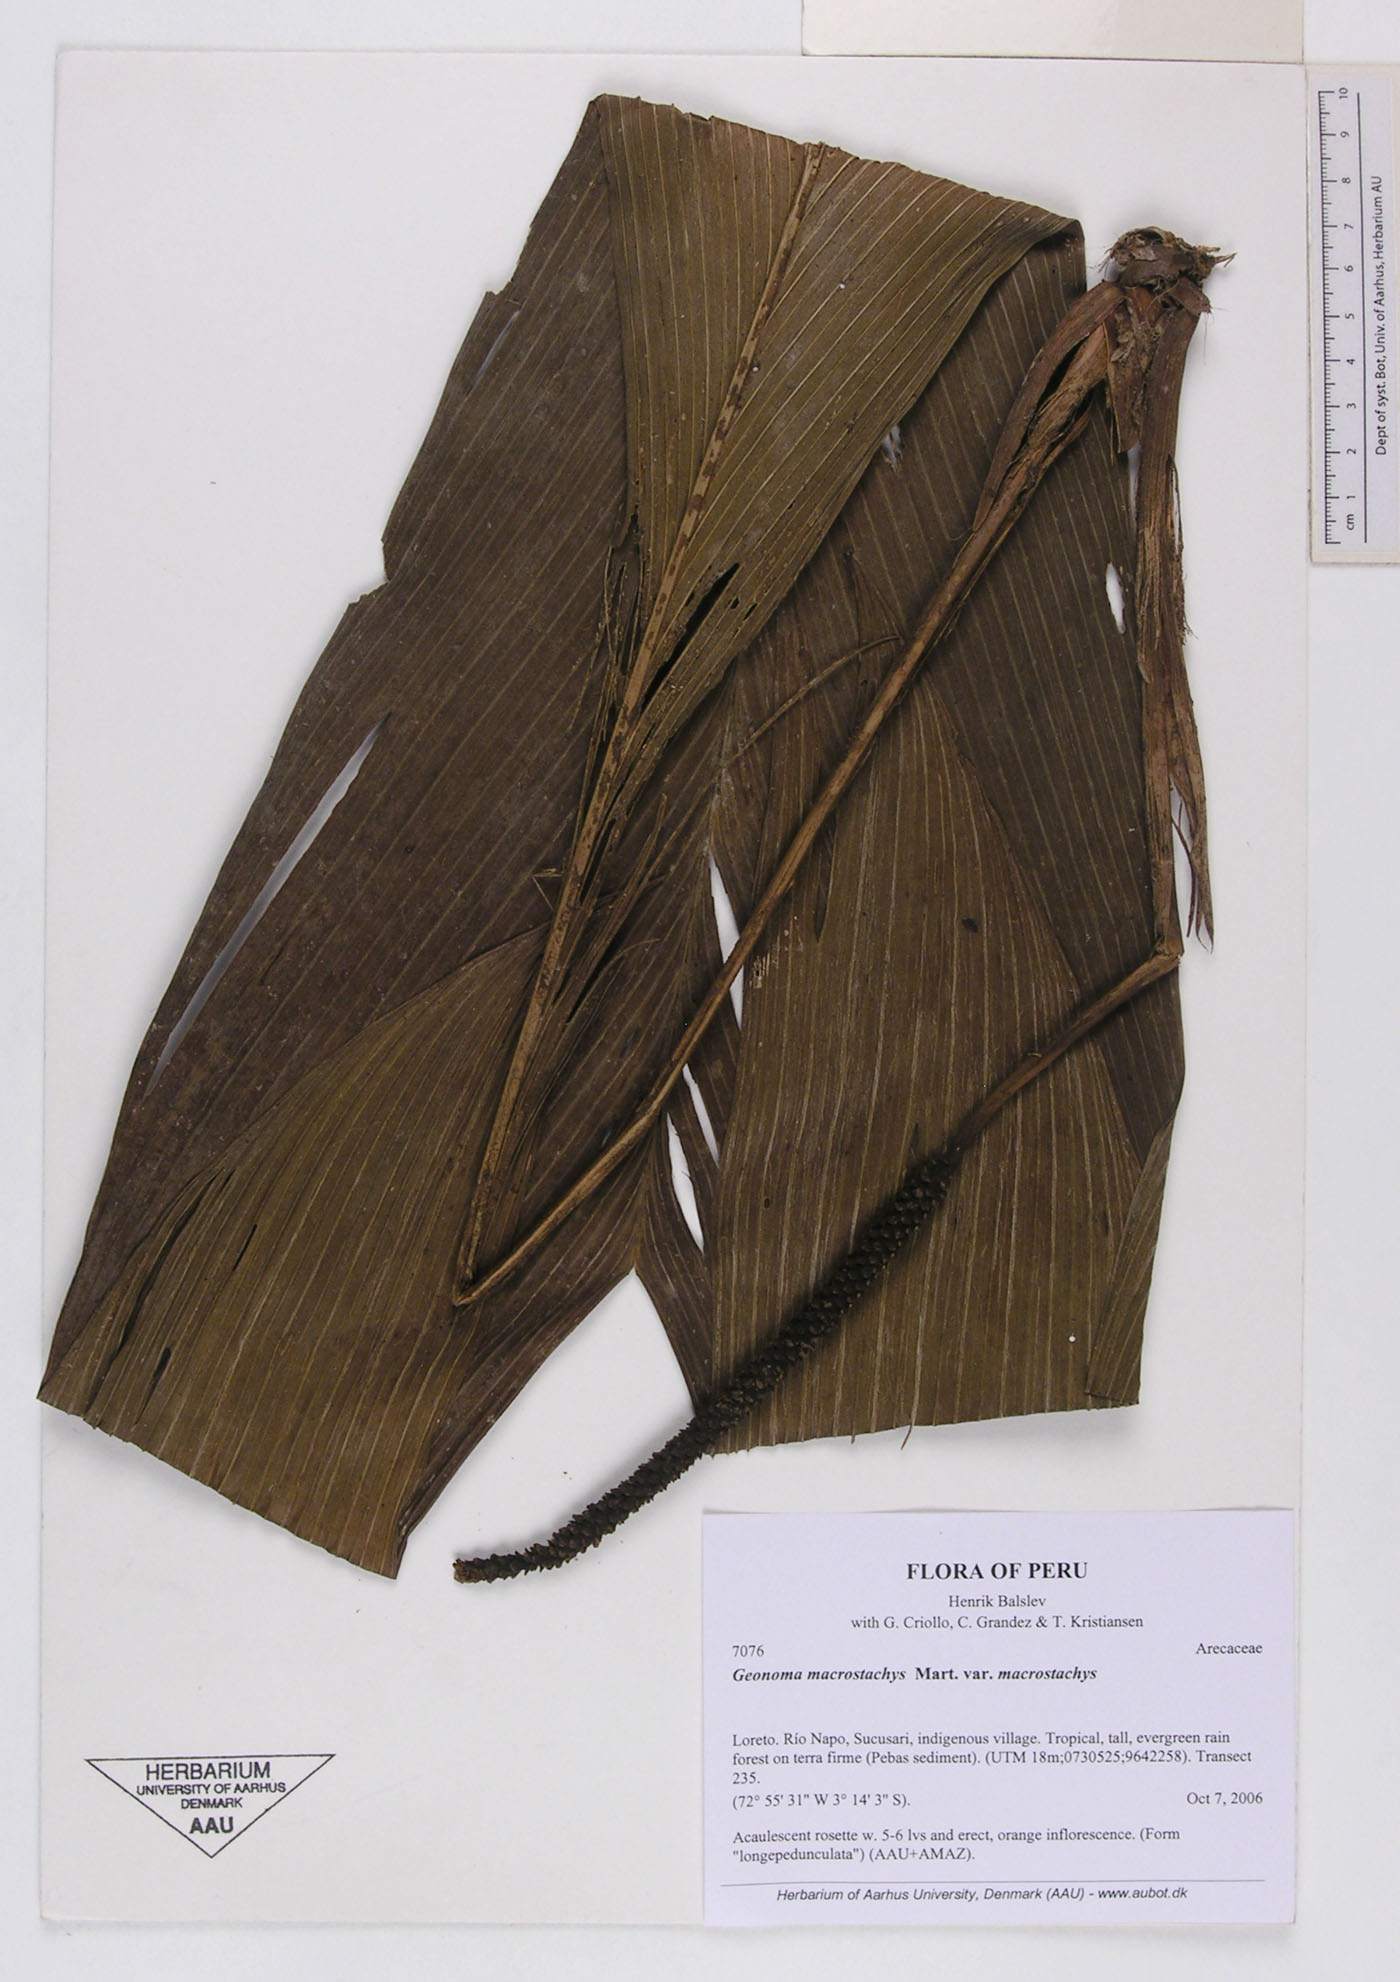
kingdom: Plantae
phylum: Tracheophyta
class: Liliopsida
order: Arecales
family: Arecaceae
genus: Geonoma
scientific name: Geonoma macrostachys
